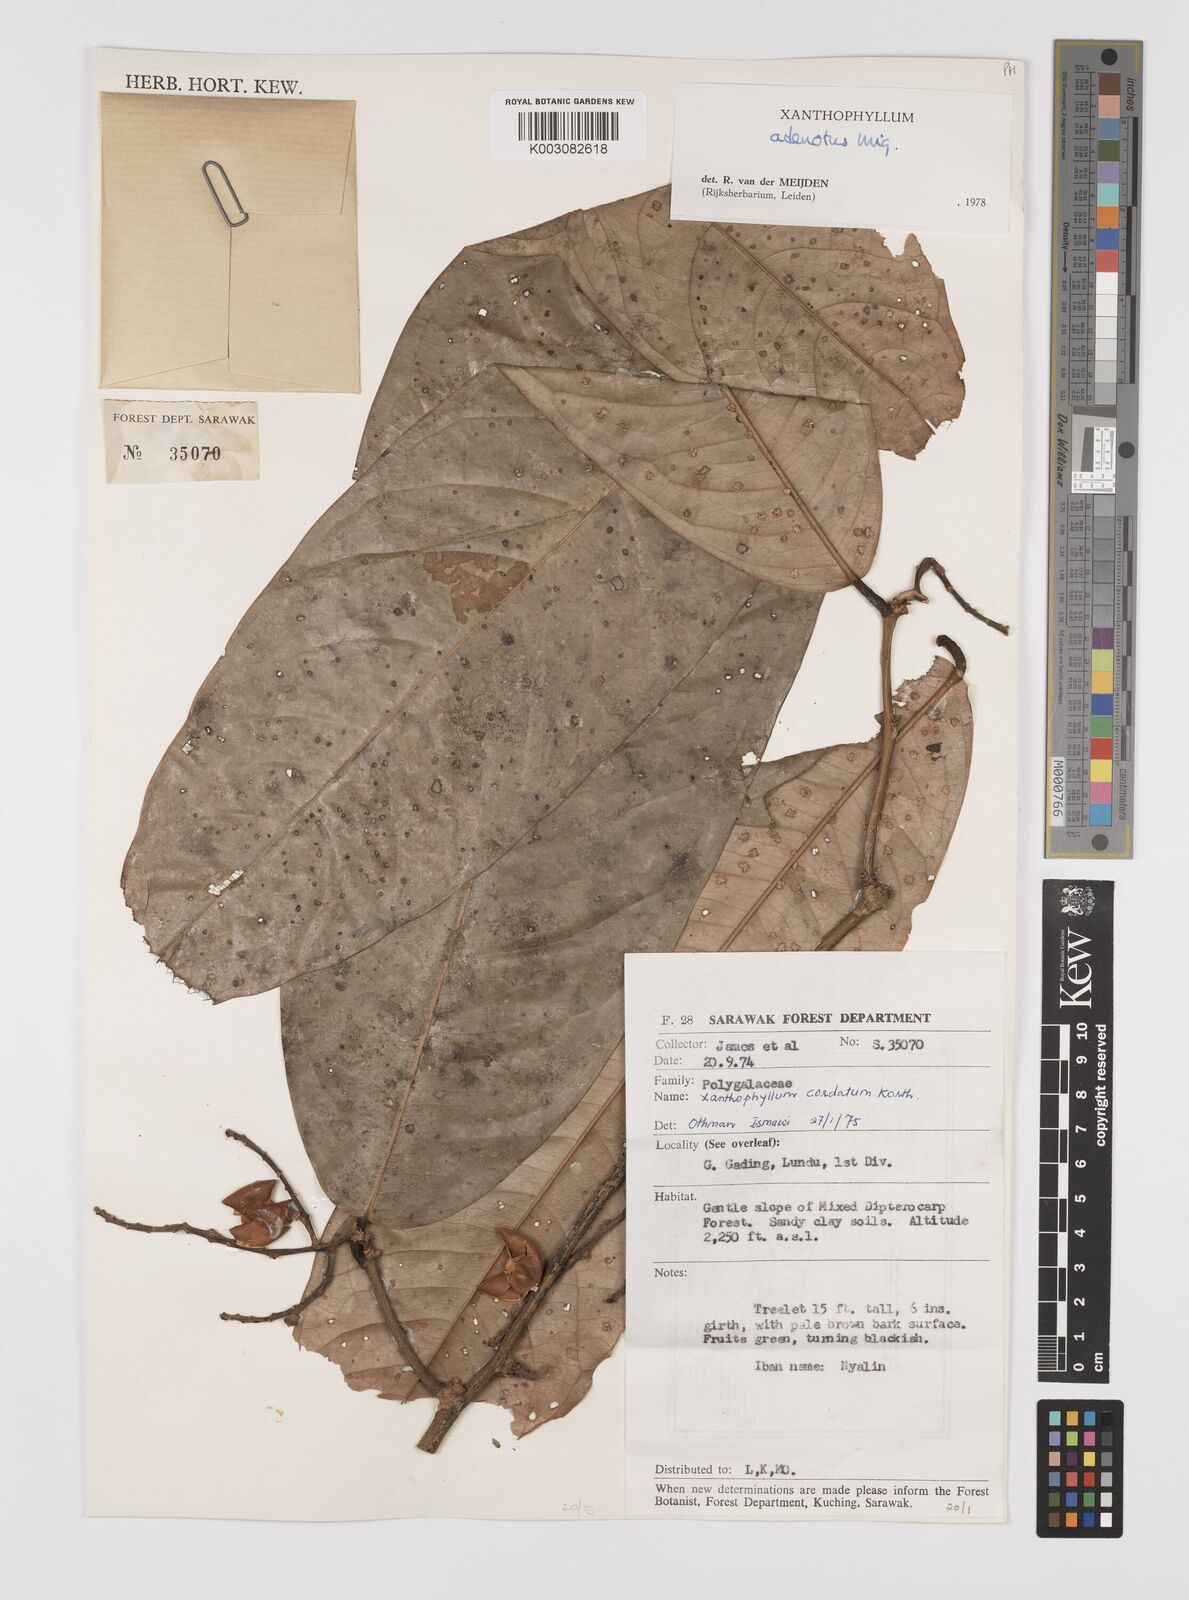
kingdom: Plantae
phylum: Tracheophyta
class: Magnoliopsida
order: Fabales
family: Polygalaceae
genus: Xanthophyllum
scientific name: Xanthophyllum adenotus
